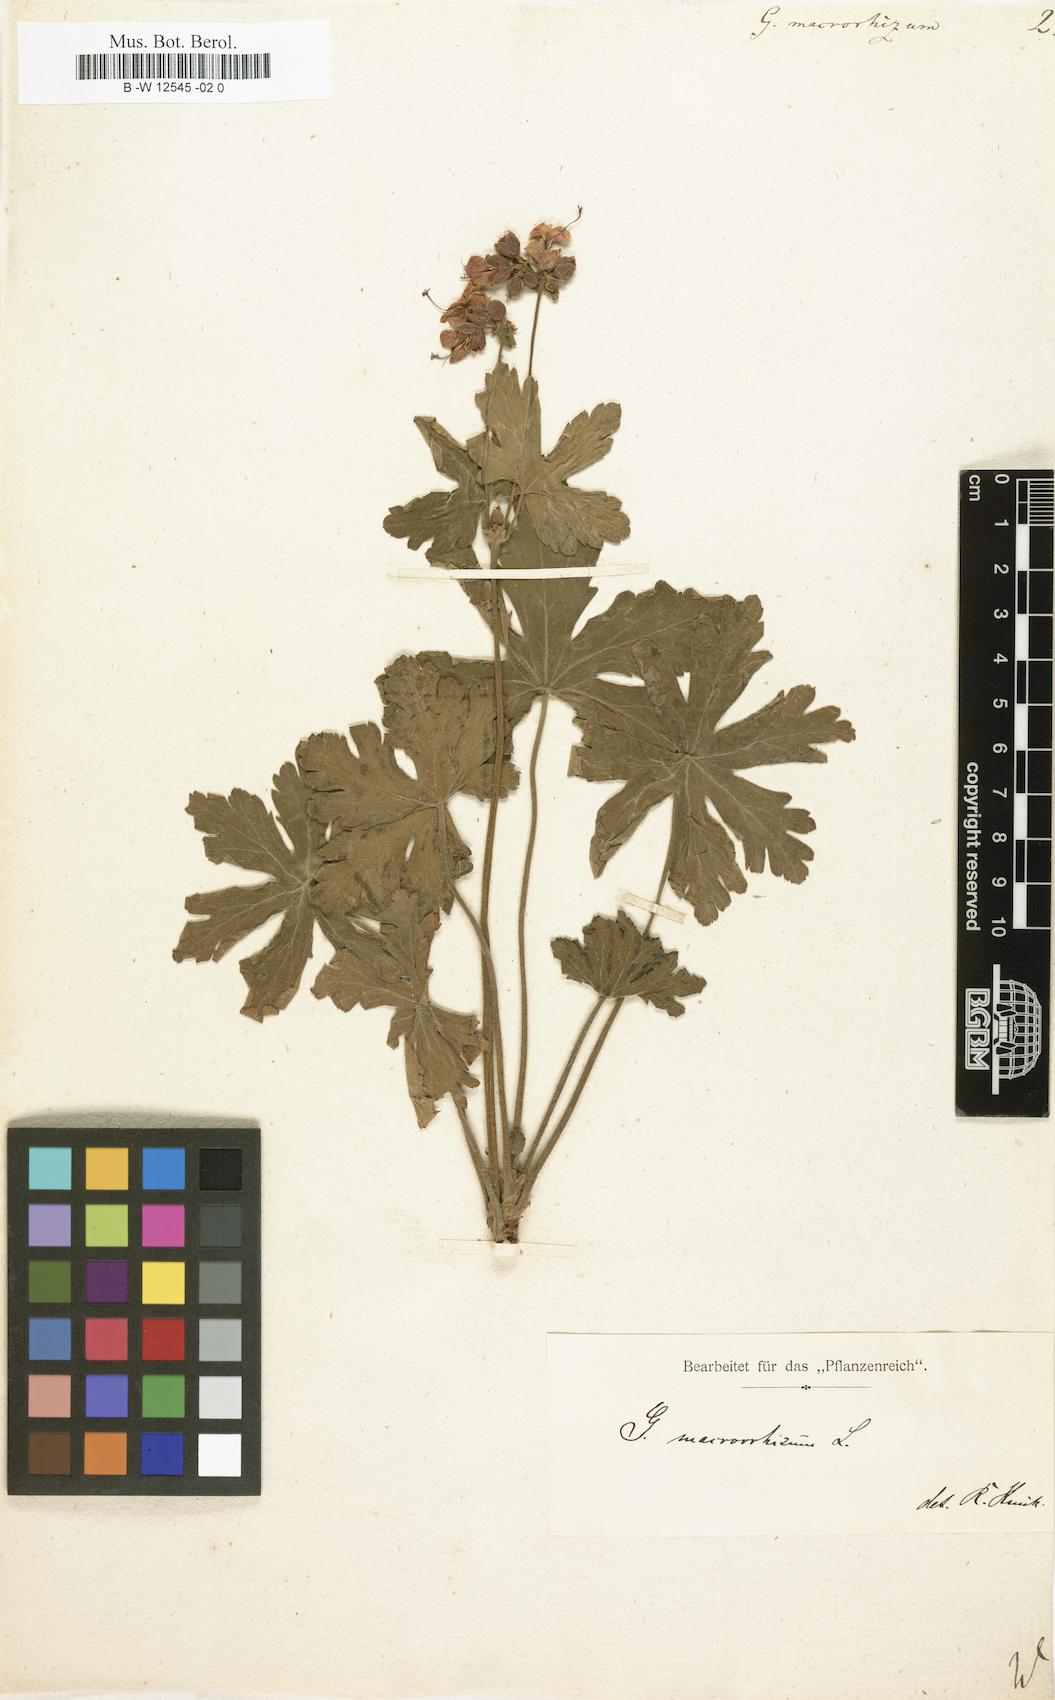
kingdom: Plantae
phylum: Tracheophyta
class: Magnoliopsida
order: Geraniales
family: Geraniaceae
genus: Geranium
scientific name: Geranium macrorrhizum
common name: Rock crane's-bill
